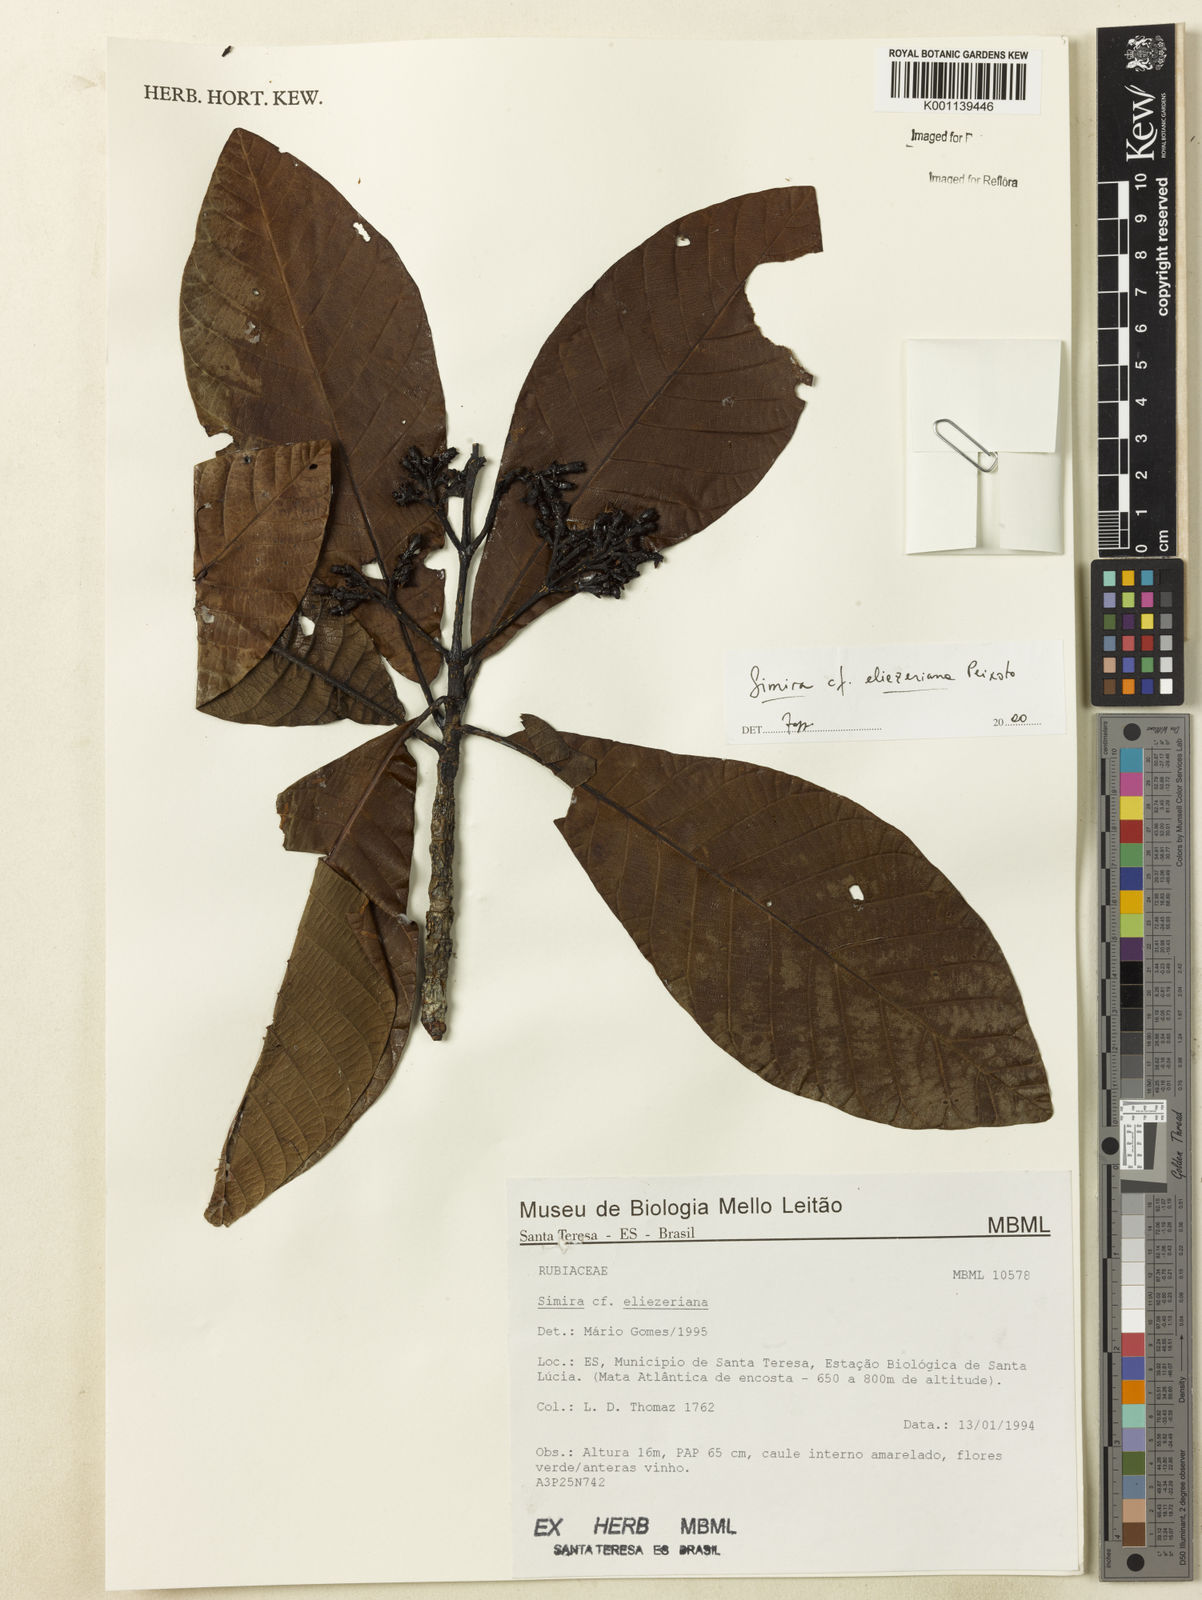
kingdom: Plantae
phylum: Tracheophyta
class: Magnoliopsida
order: Gentianales
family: Rubiaceae
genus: Simira
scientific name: Simira eliezeriana
